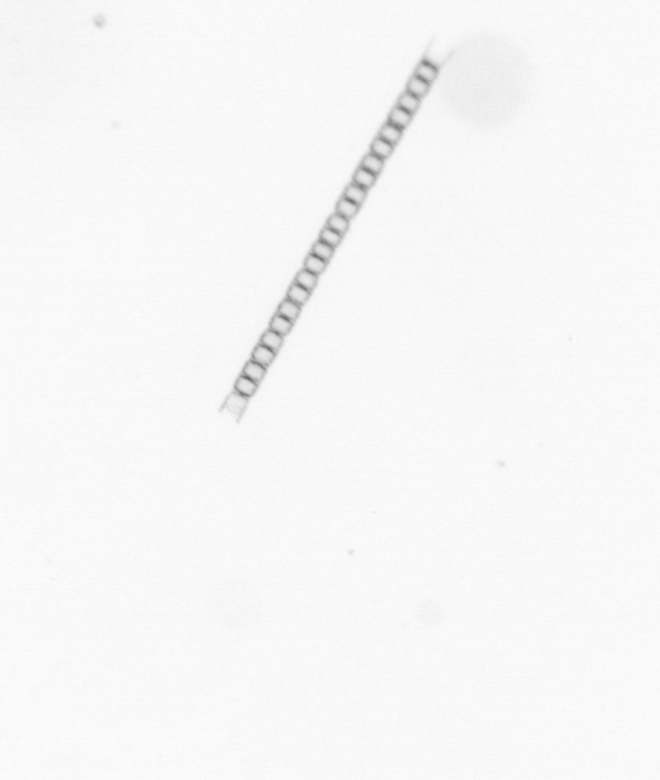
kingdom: Chromista
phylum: Ochrophyta
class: Bacillariophyceae
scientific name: Bacillariophyceae
